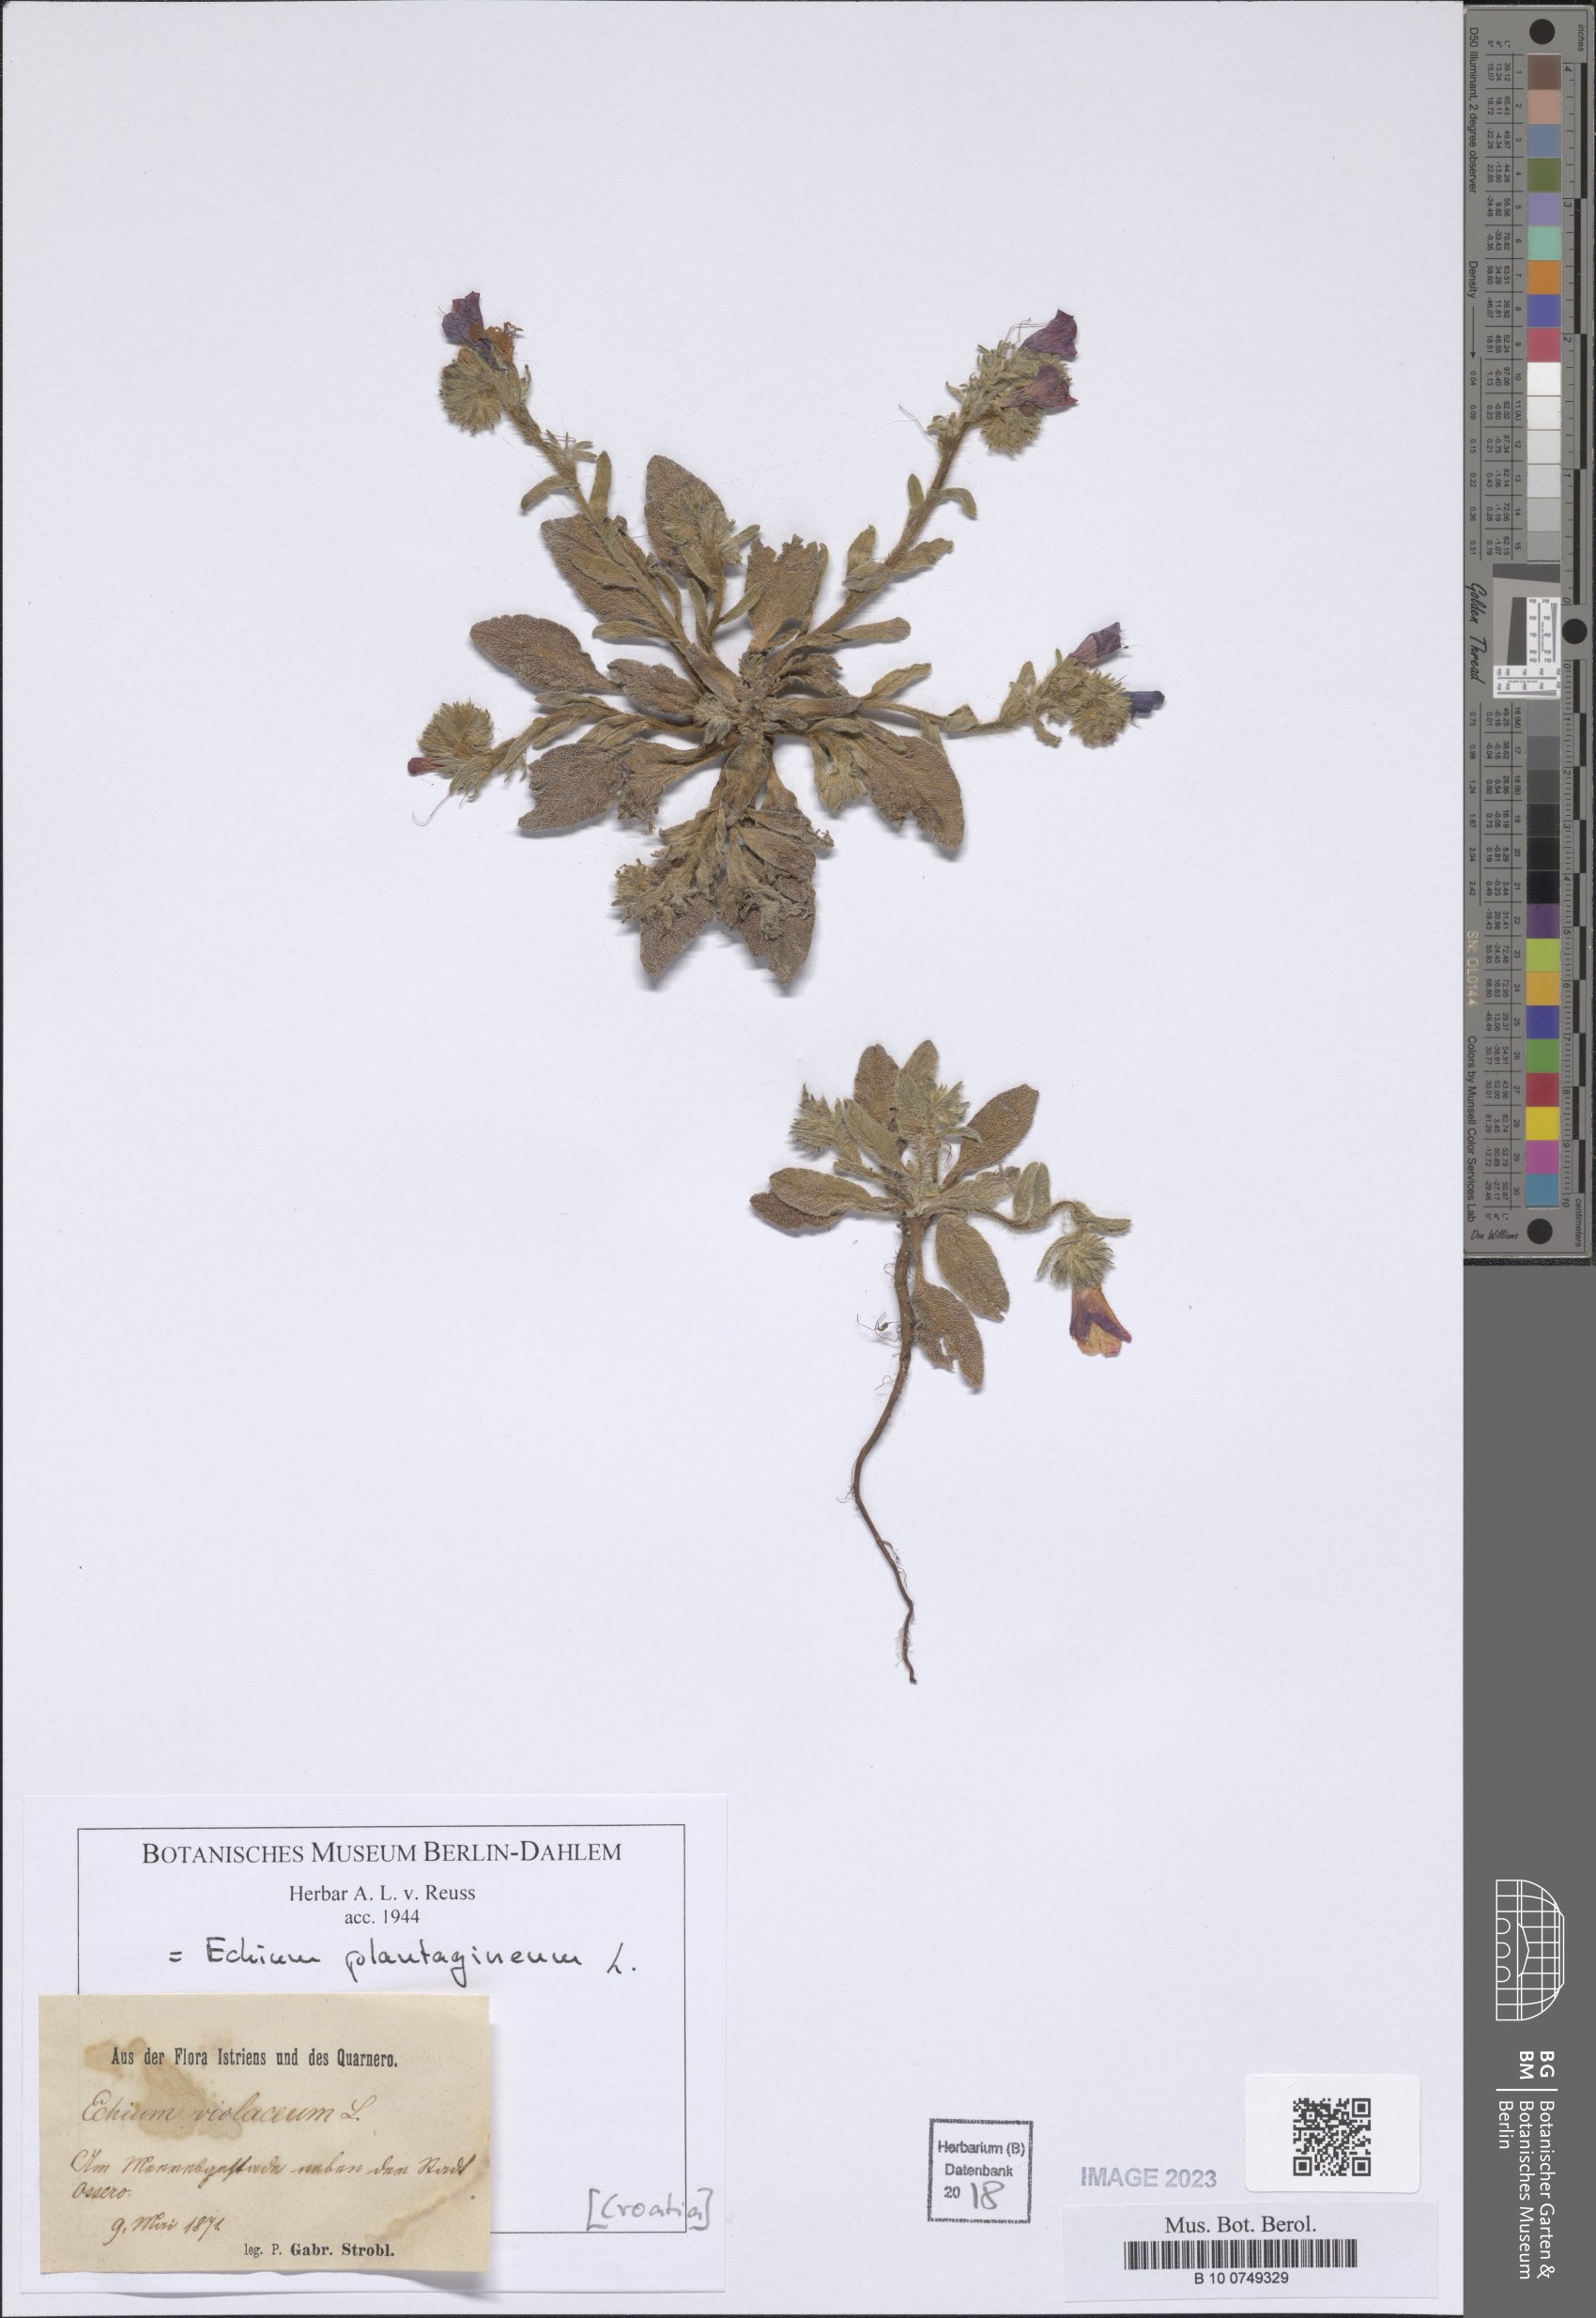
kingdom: Plantae
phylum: Tracheophyta
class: Magnoliopsida
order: Boraginales
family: Boraginaceae
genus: Echium
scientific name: Echium plantagineum
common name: Purple viper's-bugloss
